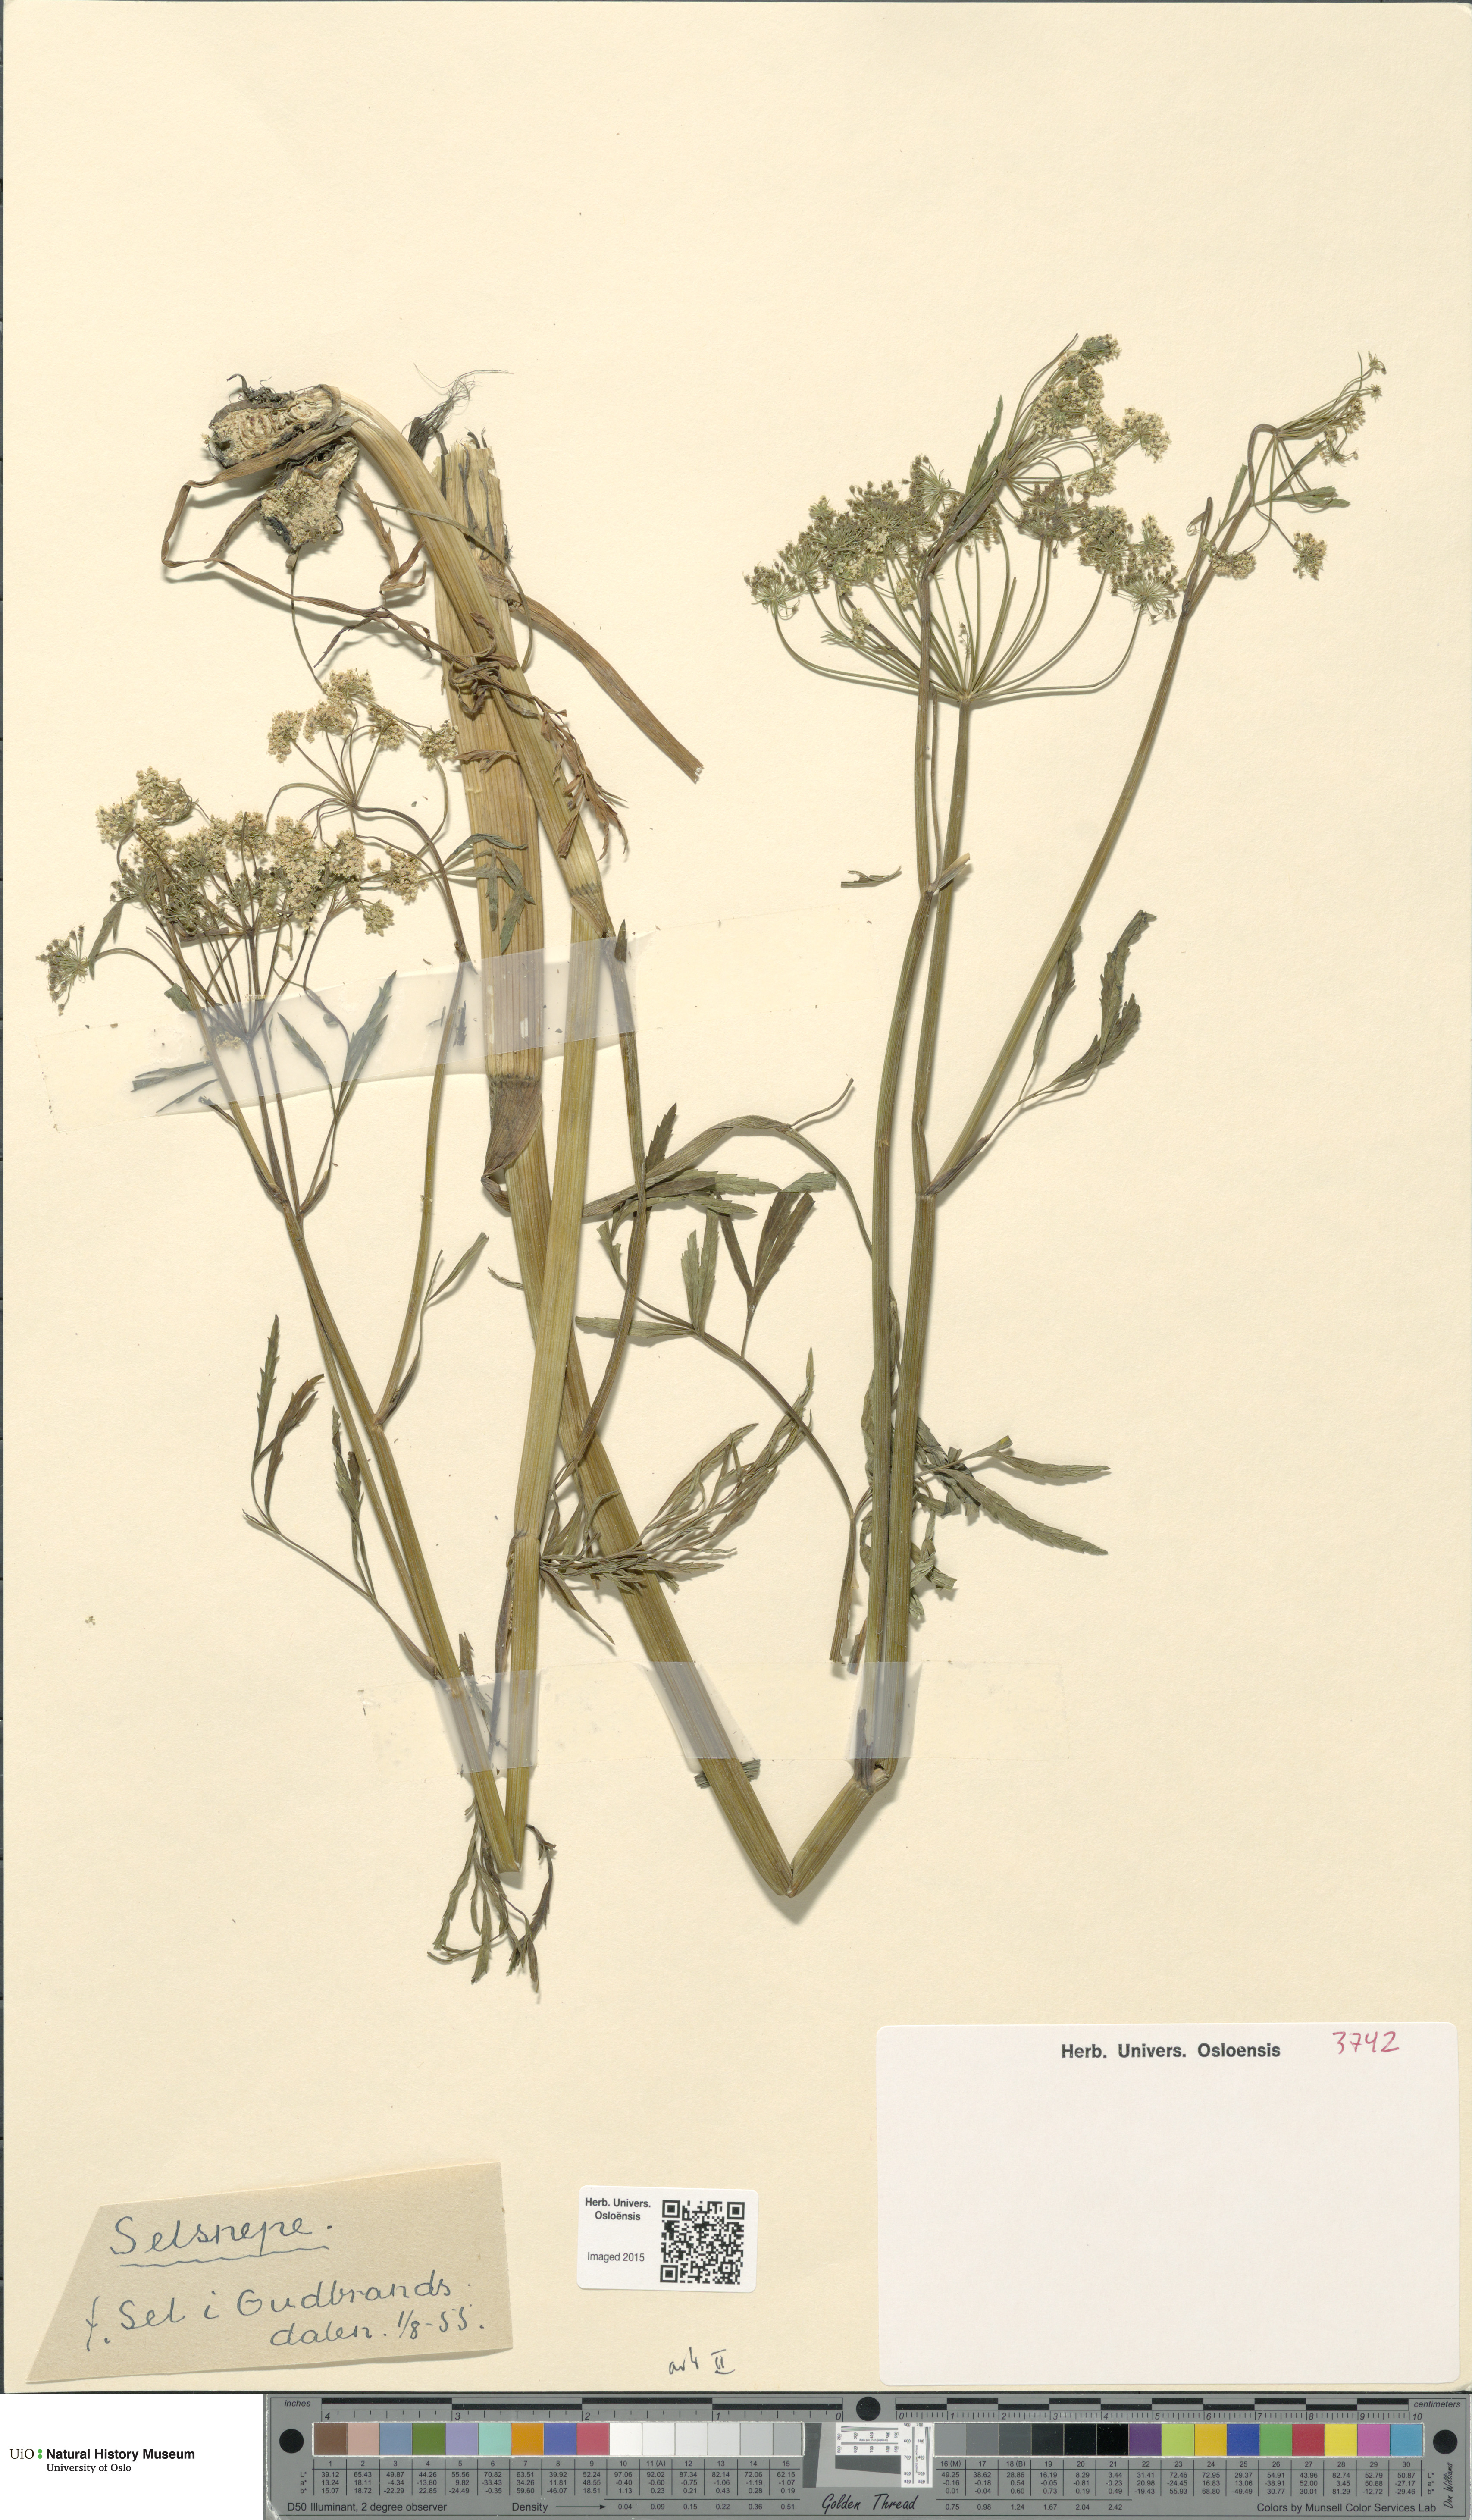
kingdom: Plantae
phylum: Tracheophyta
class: Magnoliopsida
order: Apiales
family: Apiaceae
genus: Cicuta
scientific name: Cicuta virosa
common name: Cowbane
